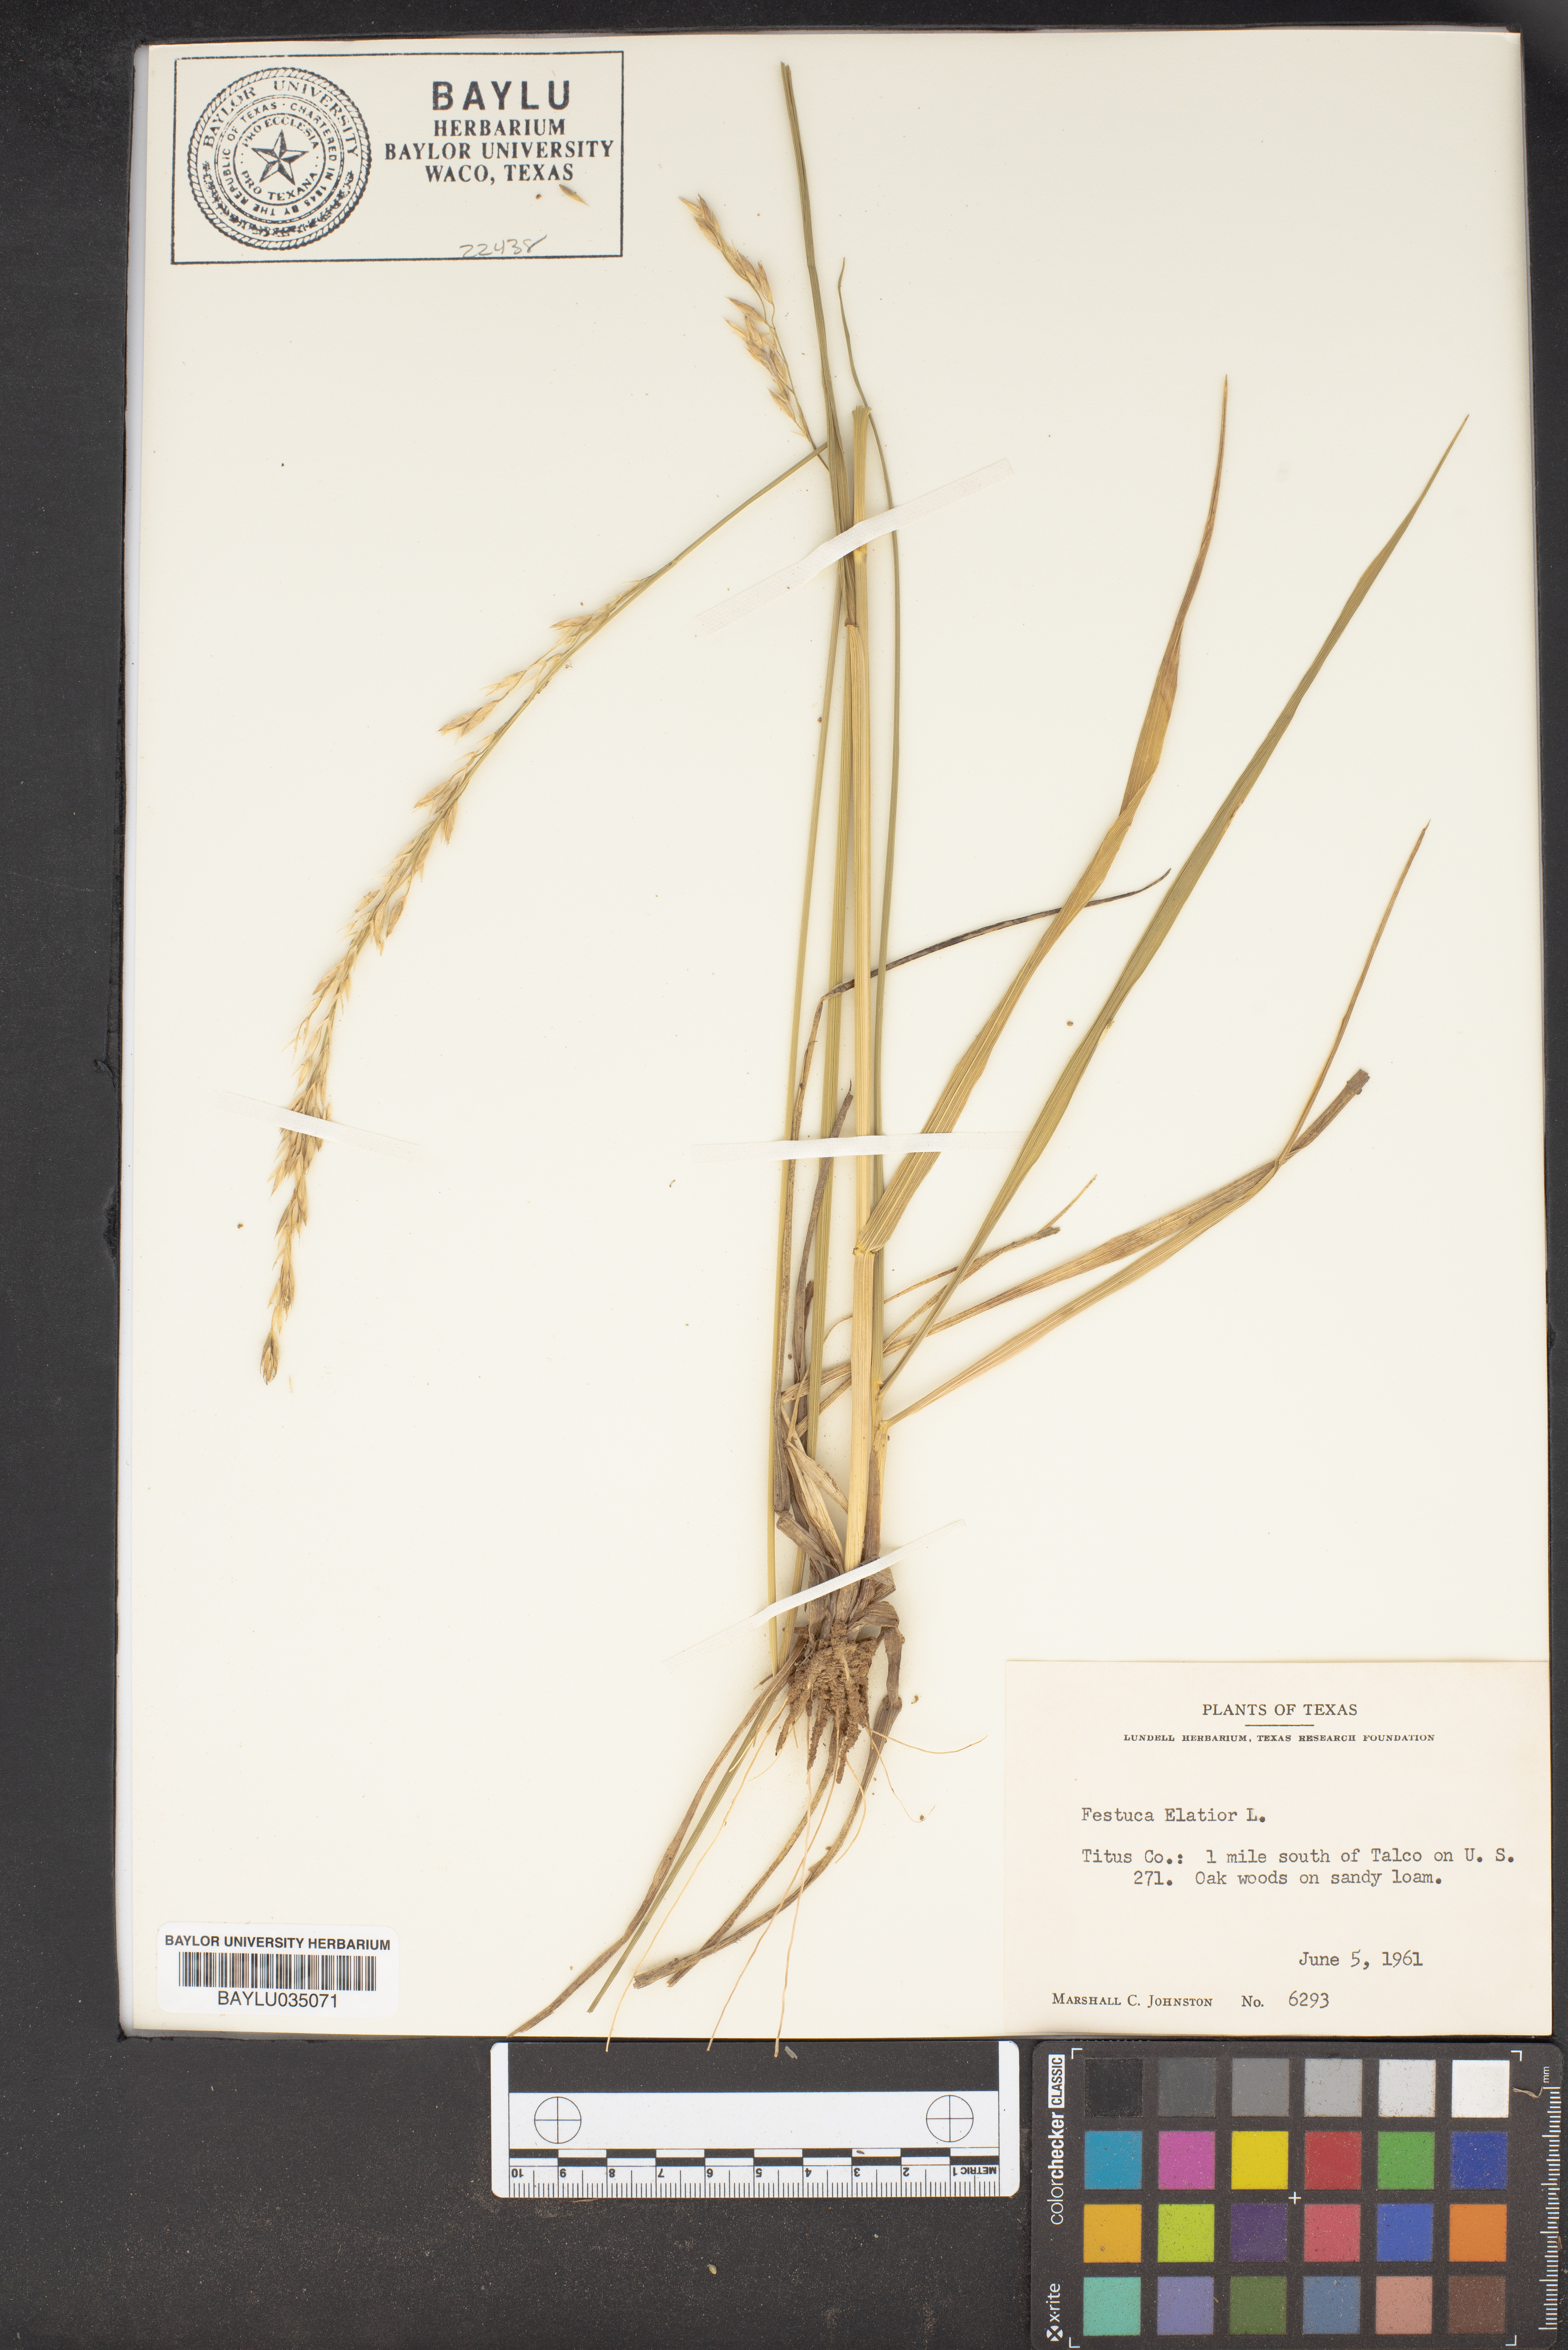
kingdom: Plantae
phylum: Tracheophyta
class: Liliopsida
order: Poales
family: Poaceae
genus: Lolium
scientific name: Lolium arundinaceum
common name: Reed fescue
